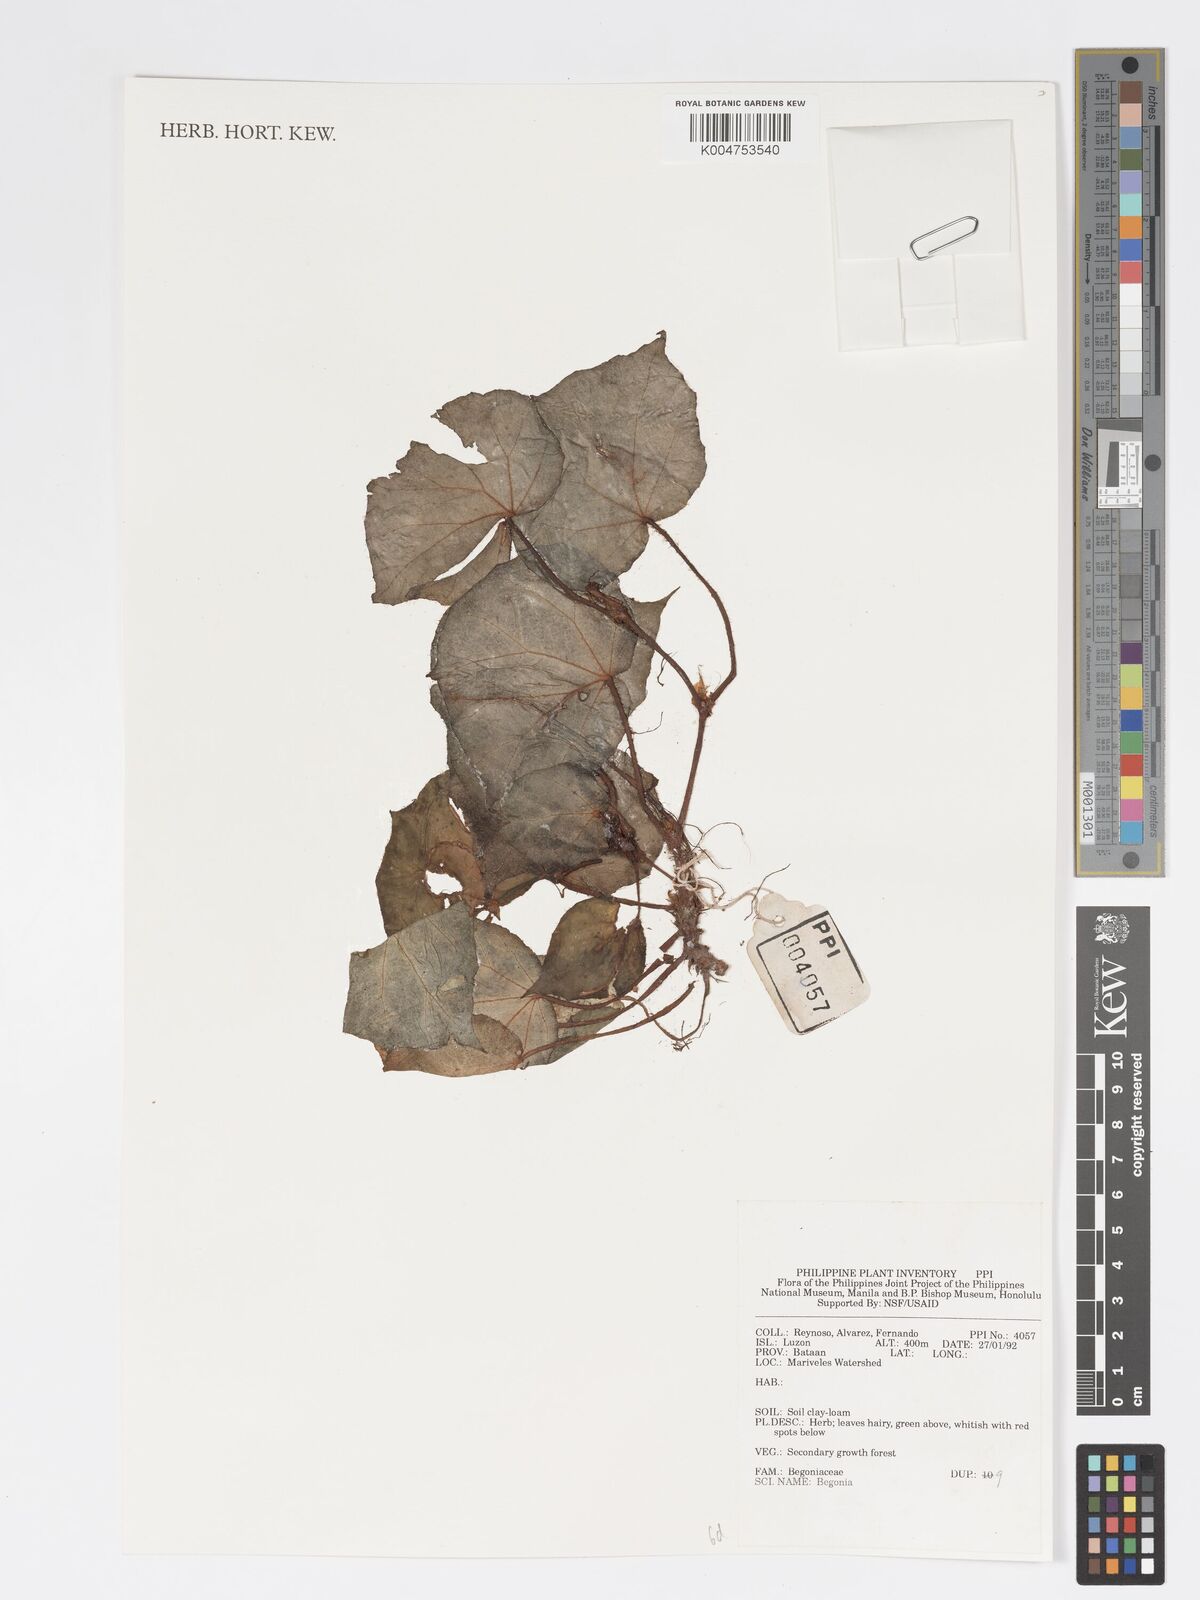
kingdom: Plantae
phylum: Tracheophyta
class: Magnoliopsida
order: Cucurbitales
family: Begoniaceae
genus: Begonia
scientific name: Begonia
